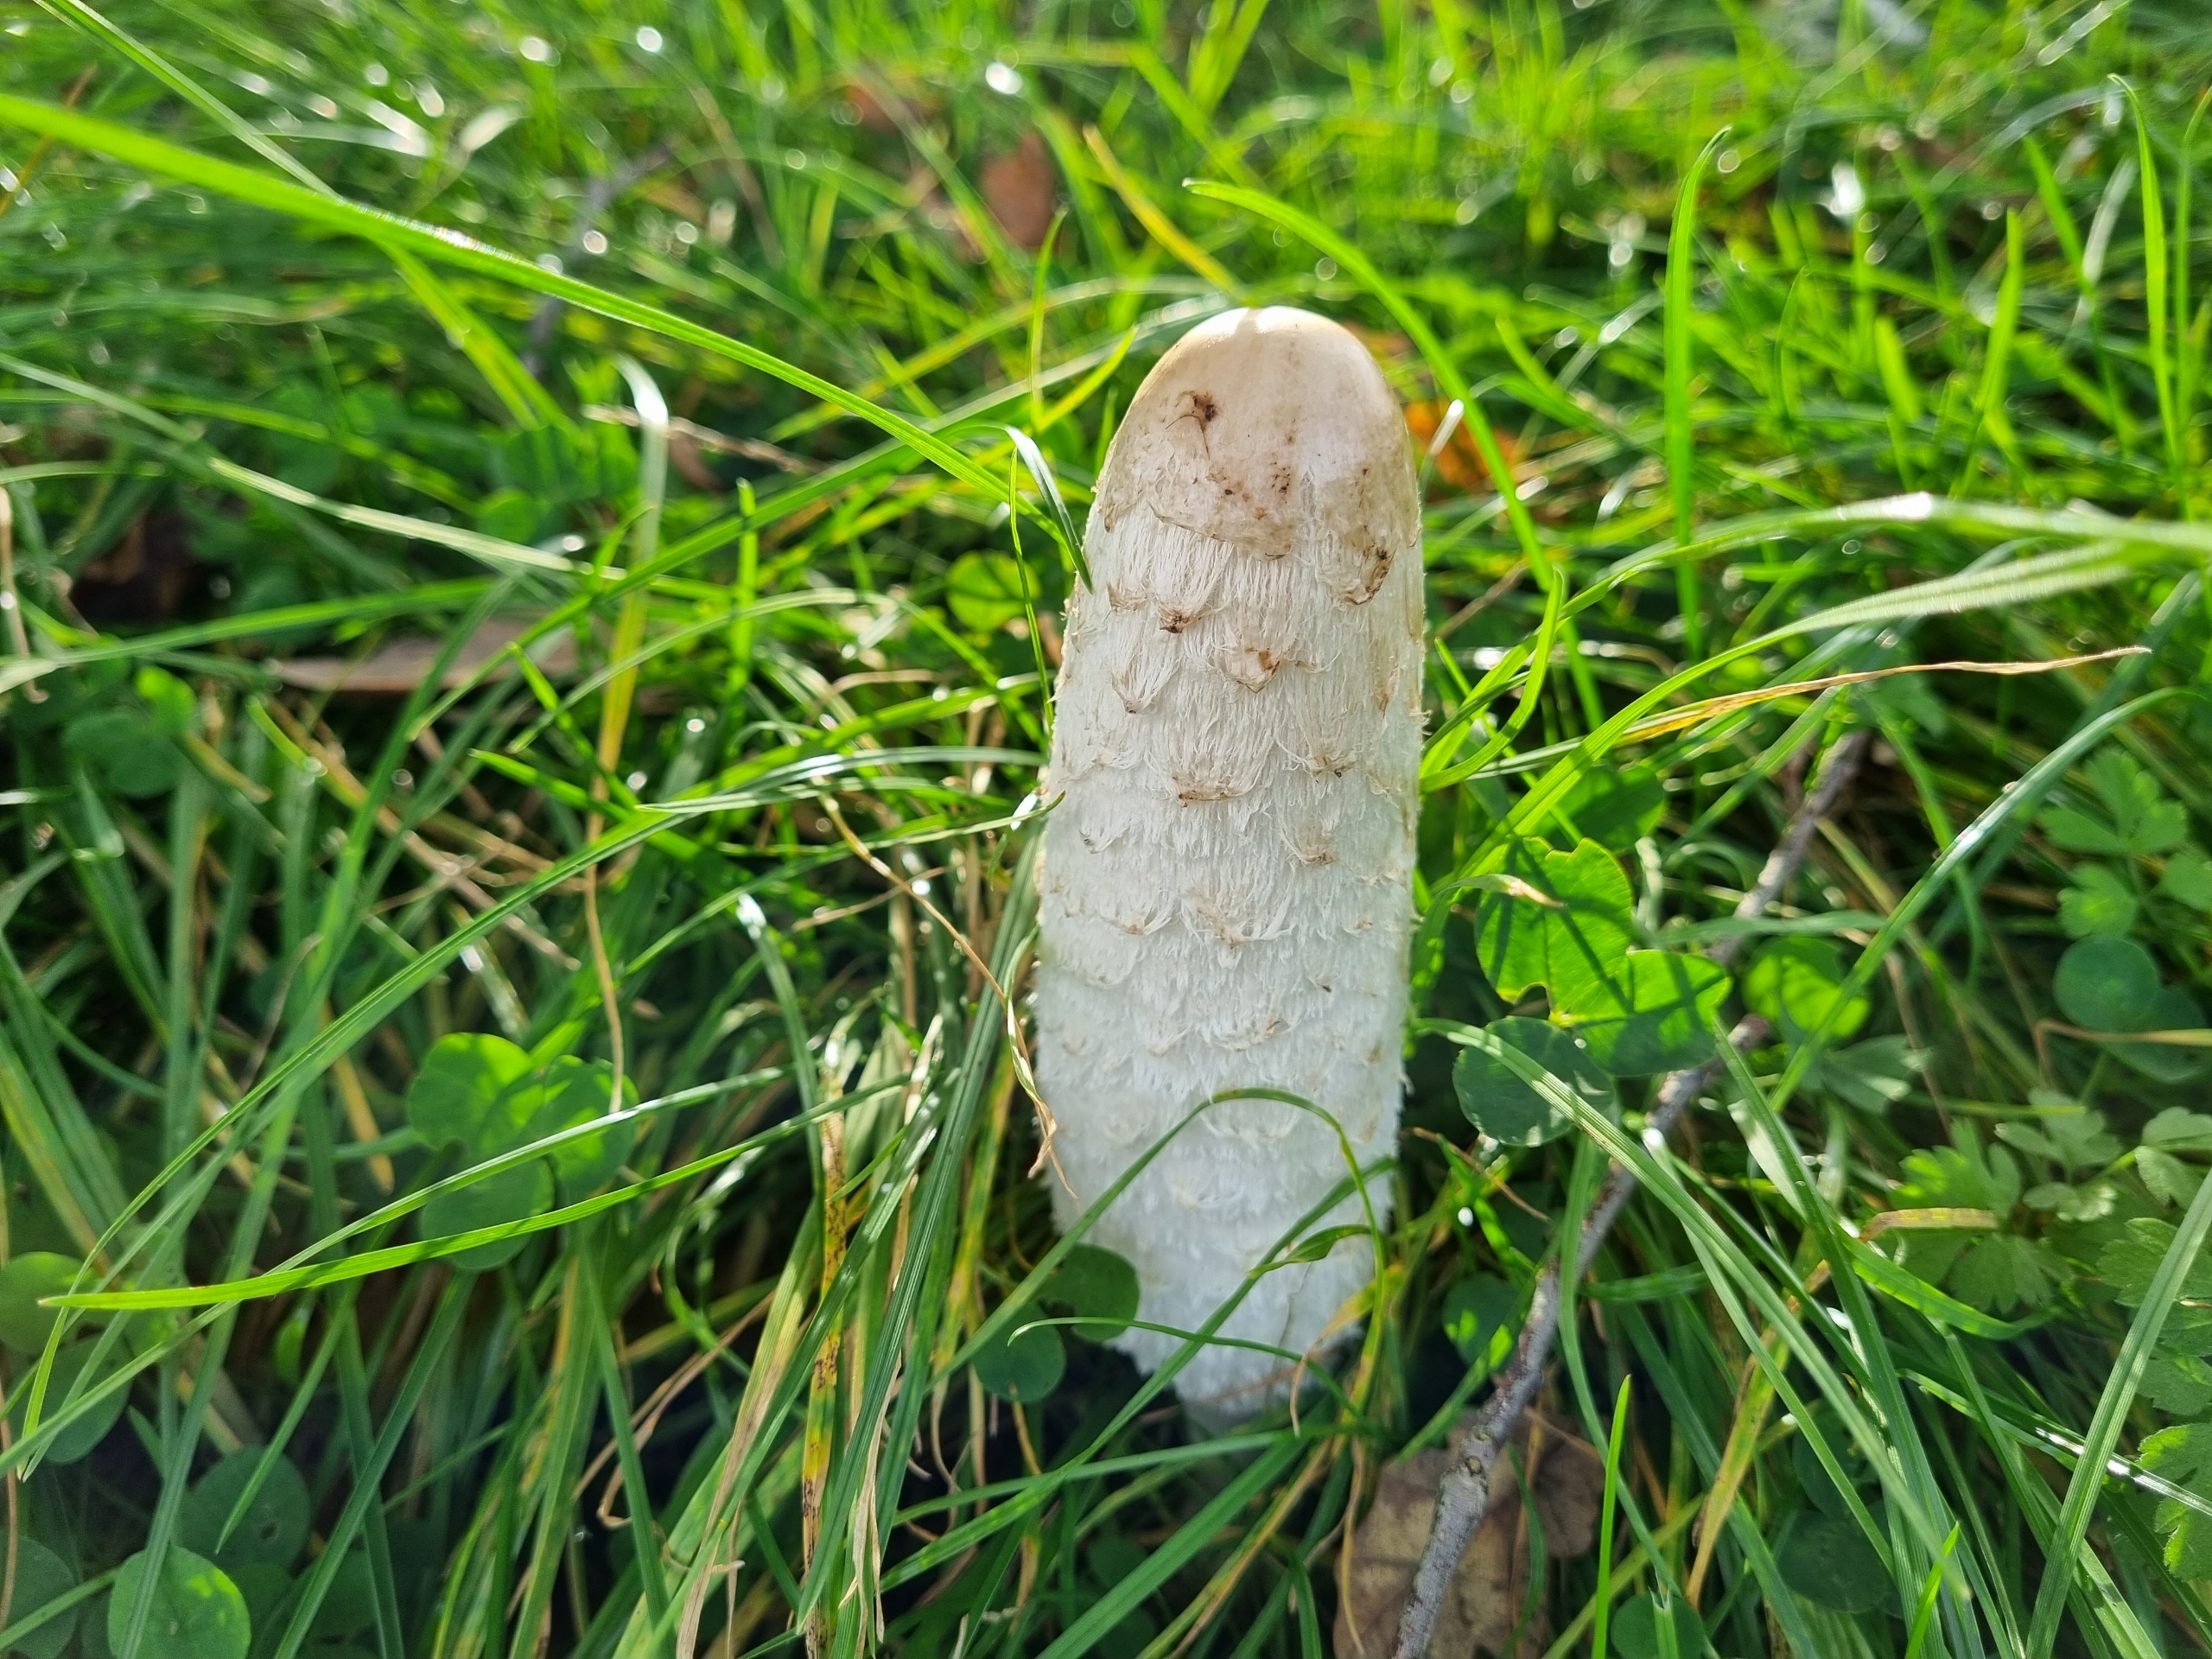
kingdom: Fungi
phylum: Basidiomycota
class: Agaricomycetes
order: Agaricales
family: Agaricaceae
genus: Coprinus
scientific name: Coprinus comatus
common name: Stor parykhat
